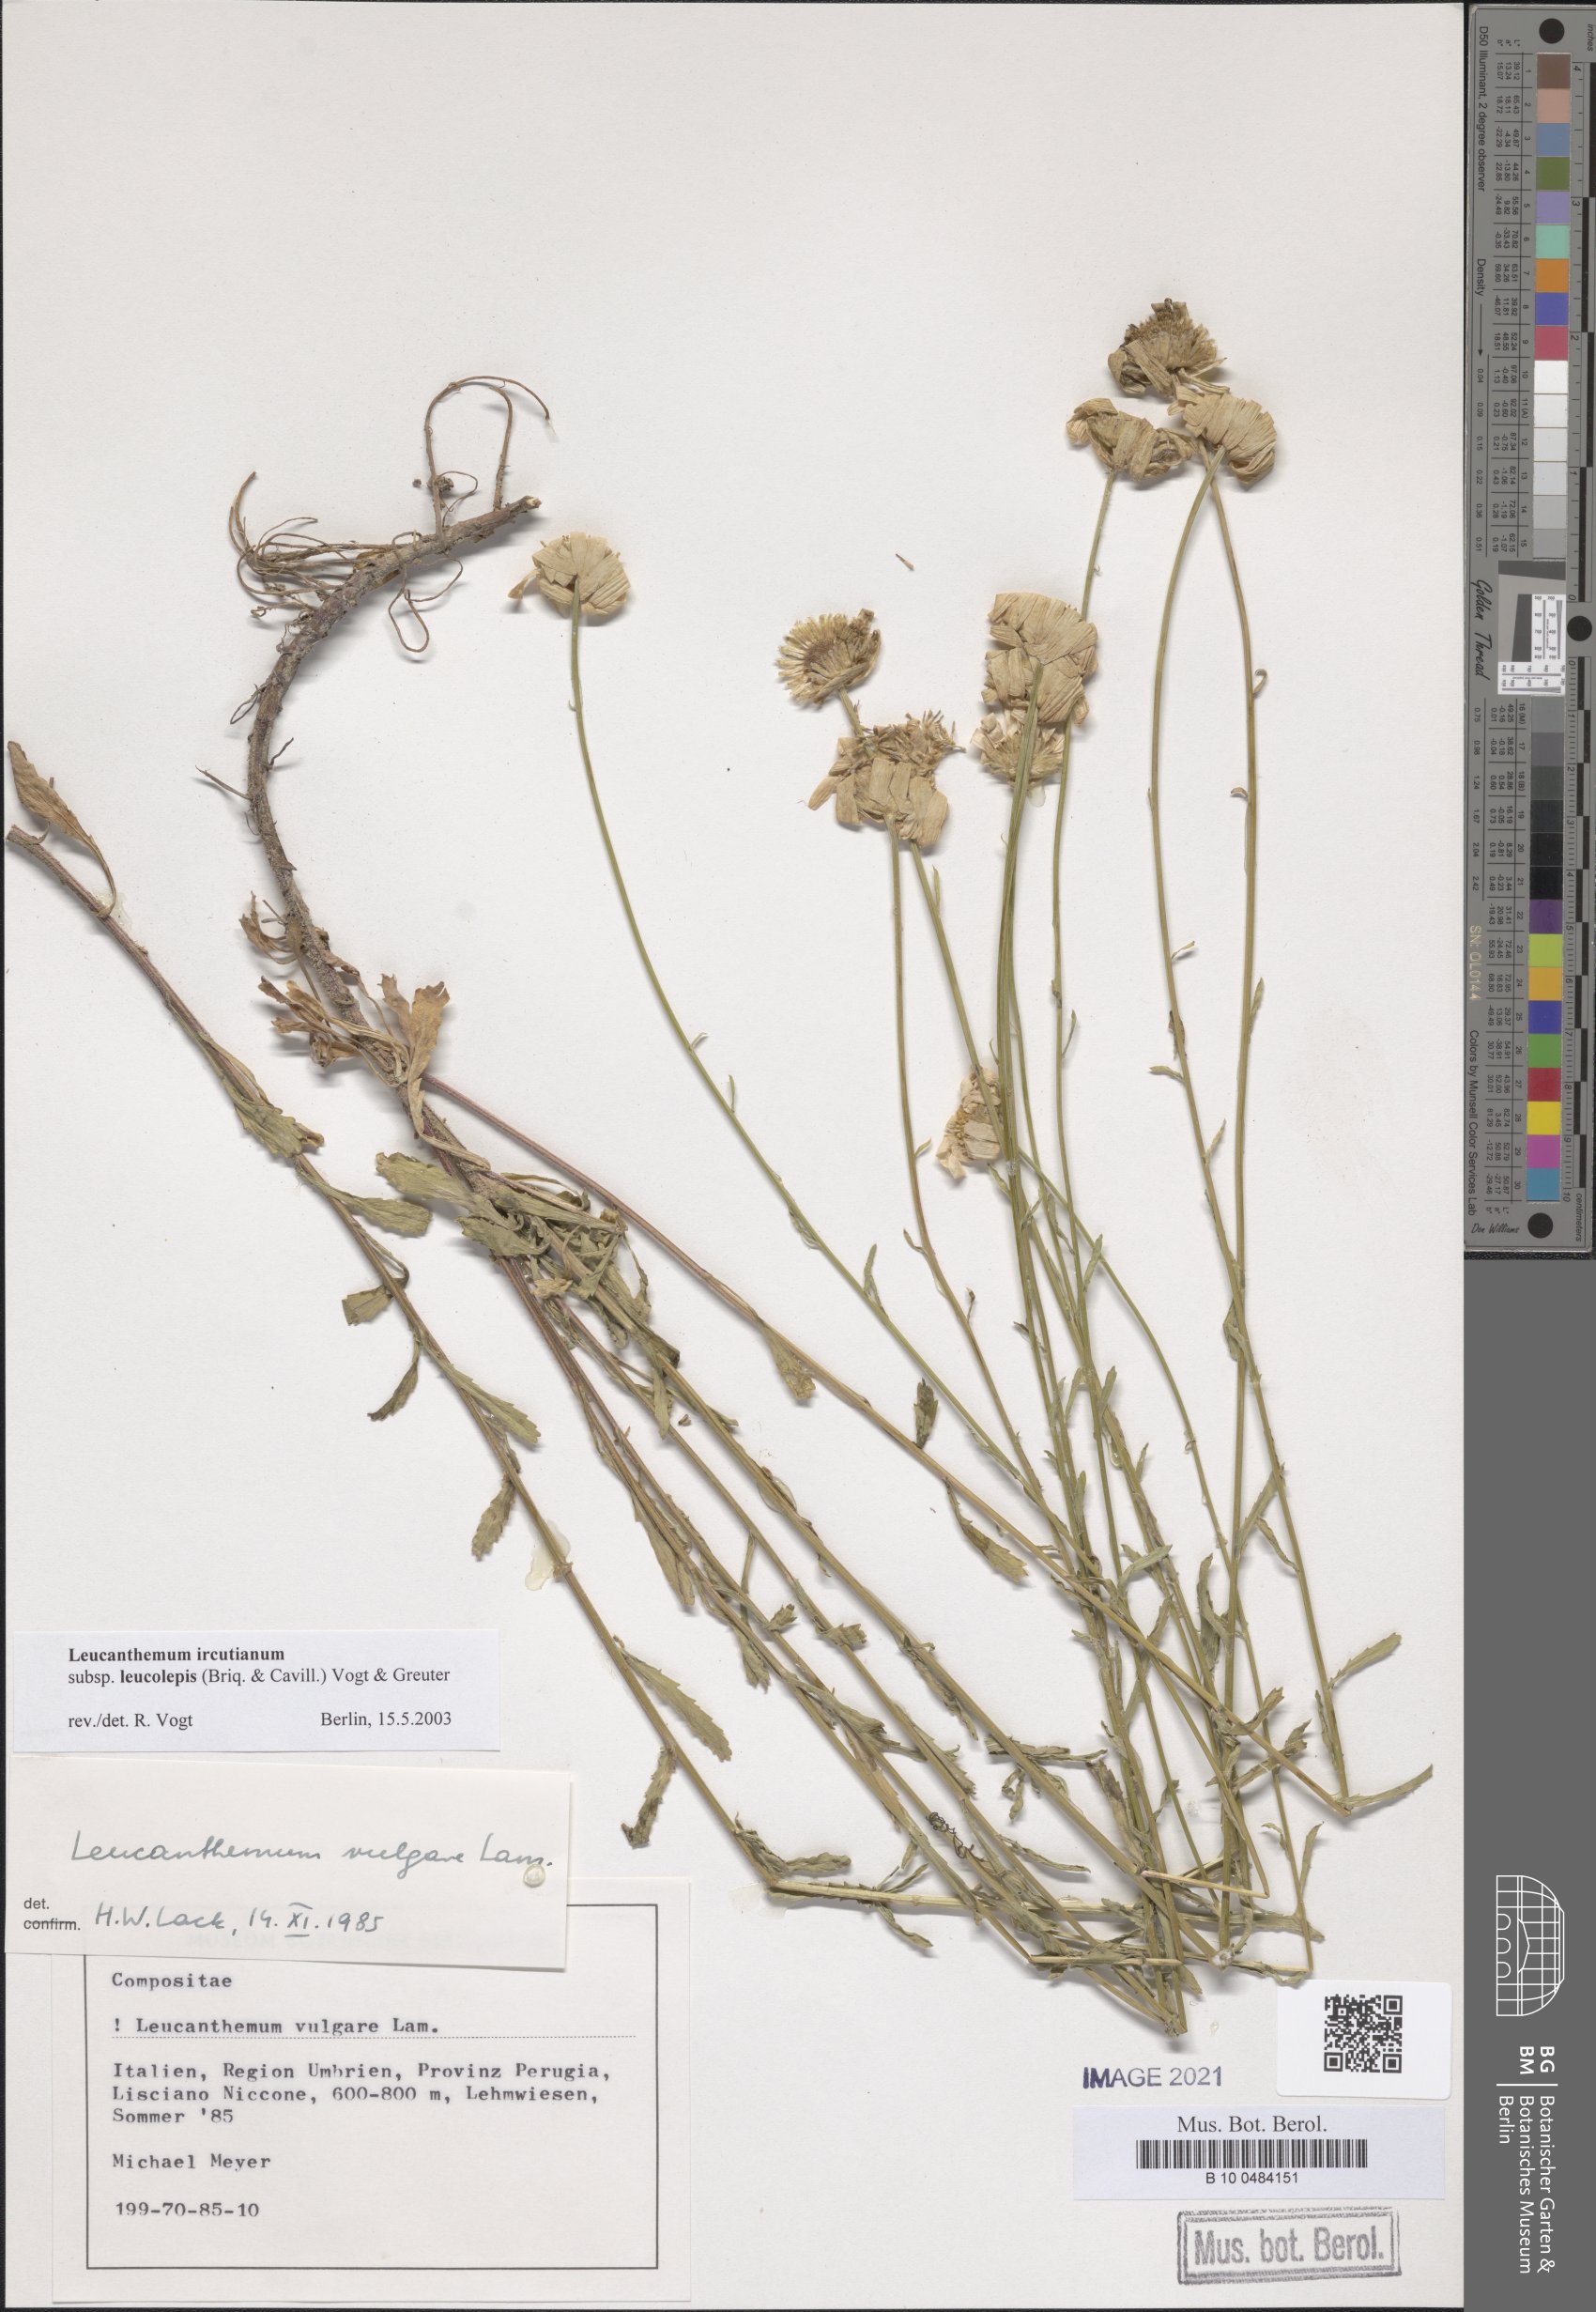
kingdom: Plantae
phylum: Tracheophyta
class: Magnoliopsida
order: Asterales
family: Asteraceae
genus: Leucanthemum
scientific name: Leucanthemum ircutianum
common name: Daisy
